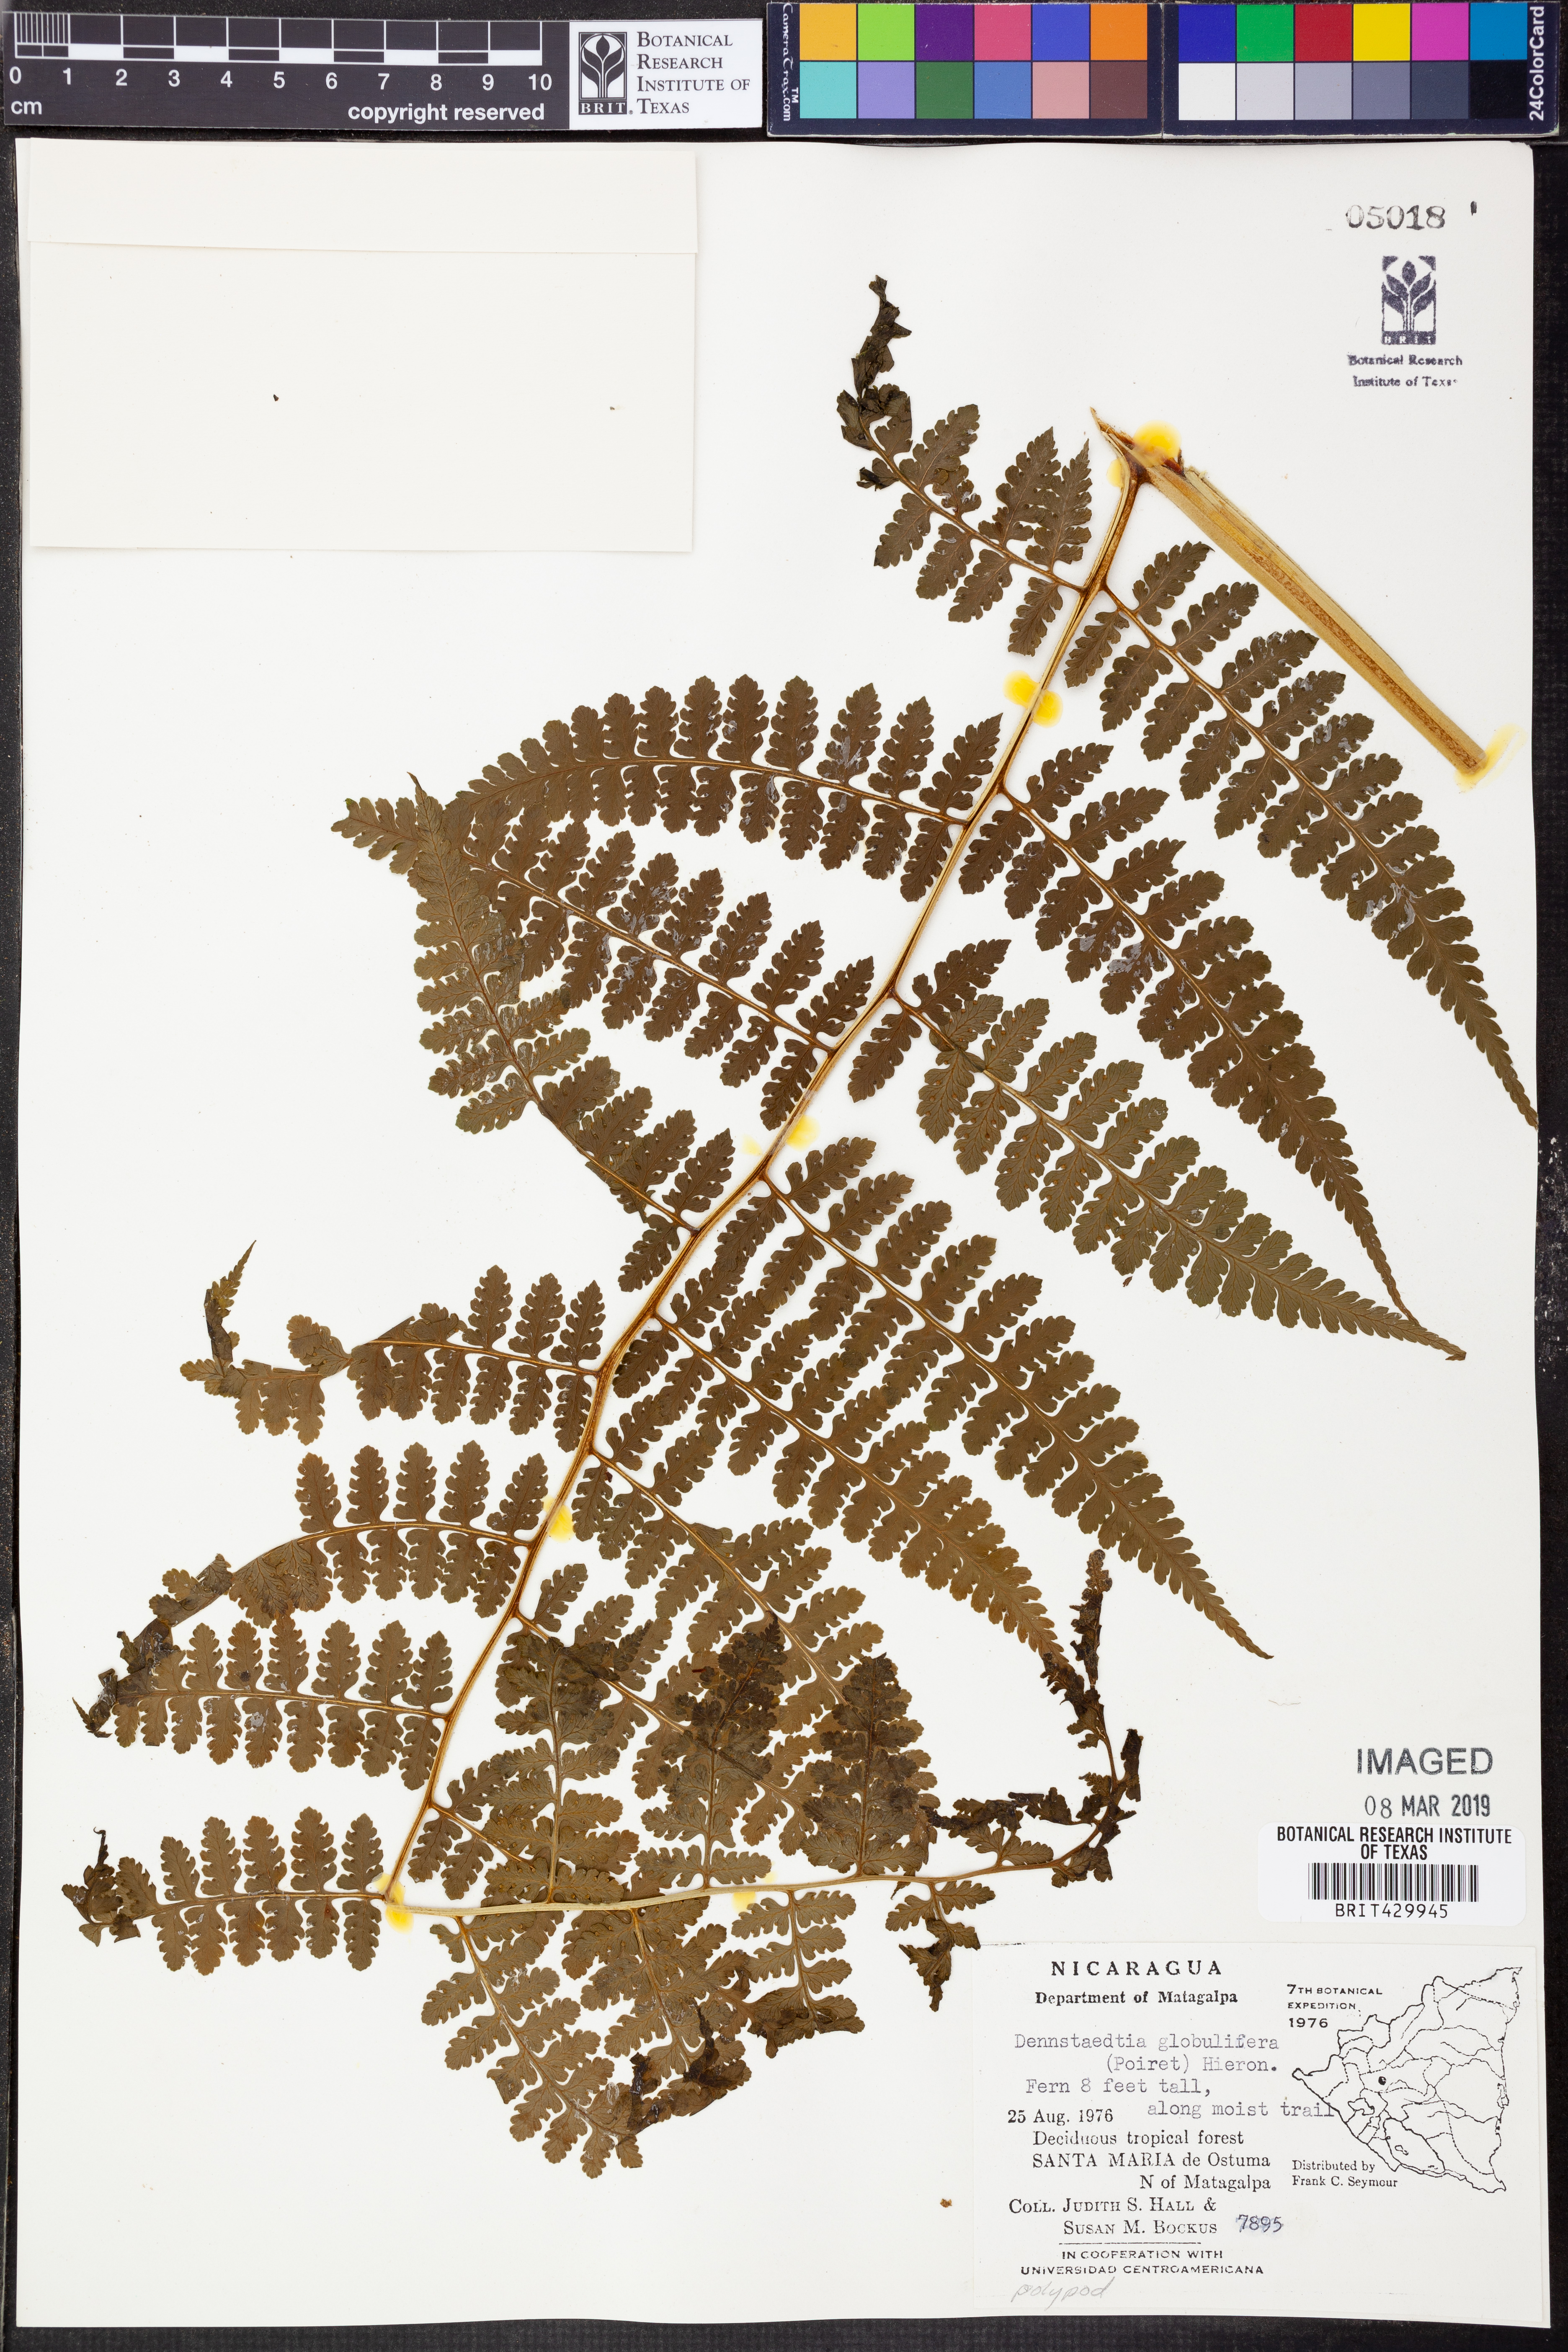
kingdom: Plantae
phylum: Tracheophyta
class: Polypodiopsida
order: Polypodiales
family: Dennstaedtiaceae
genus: Mucura
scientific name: Mucura globulifera
